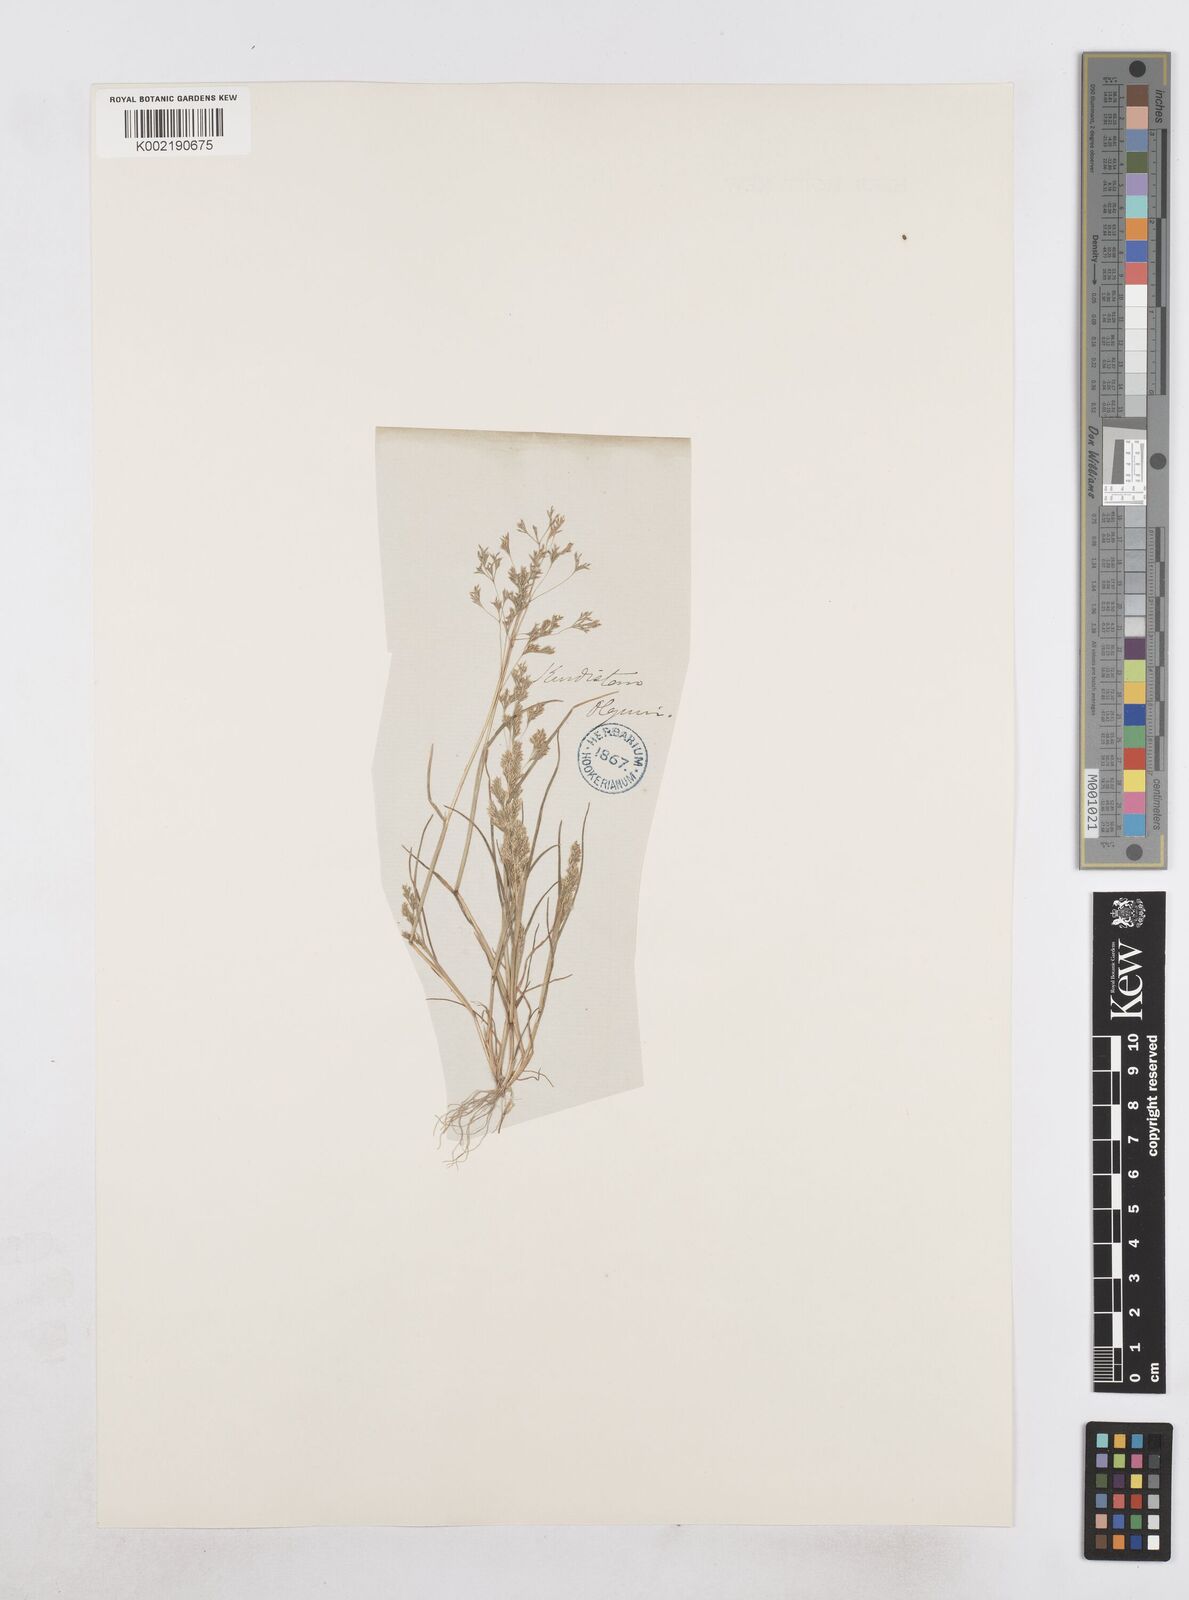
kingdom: Plantae
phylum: Tracheophyta
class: Liliopsida
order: Poales
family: Poaceae
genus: Sphenopus
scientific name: Sphenopus divaricatus
